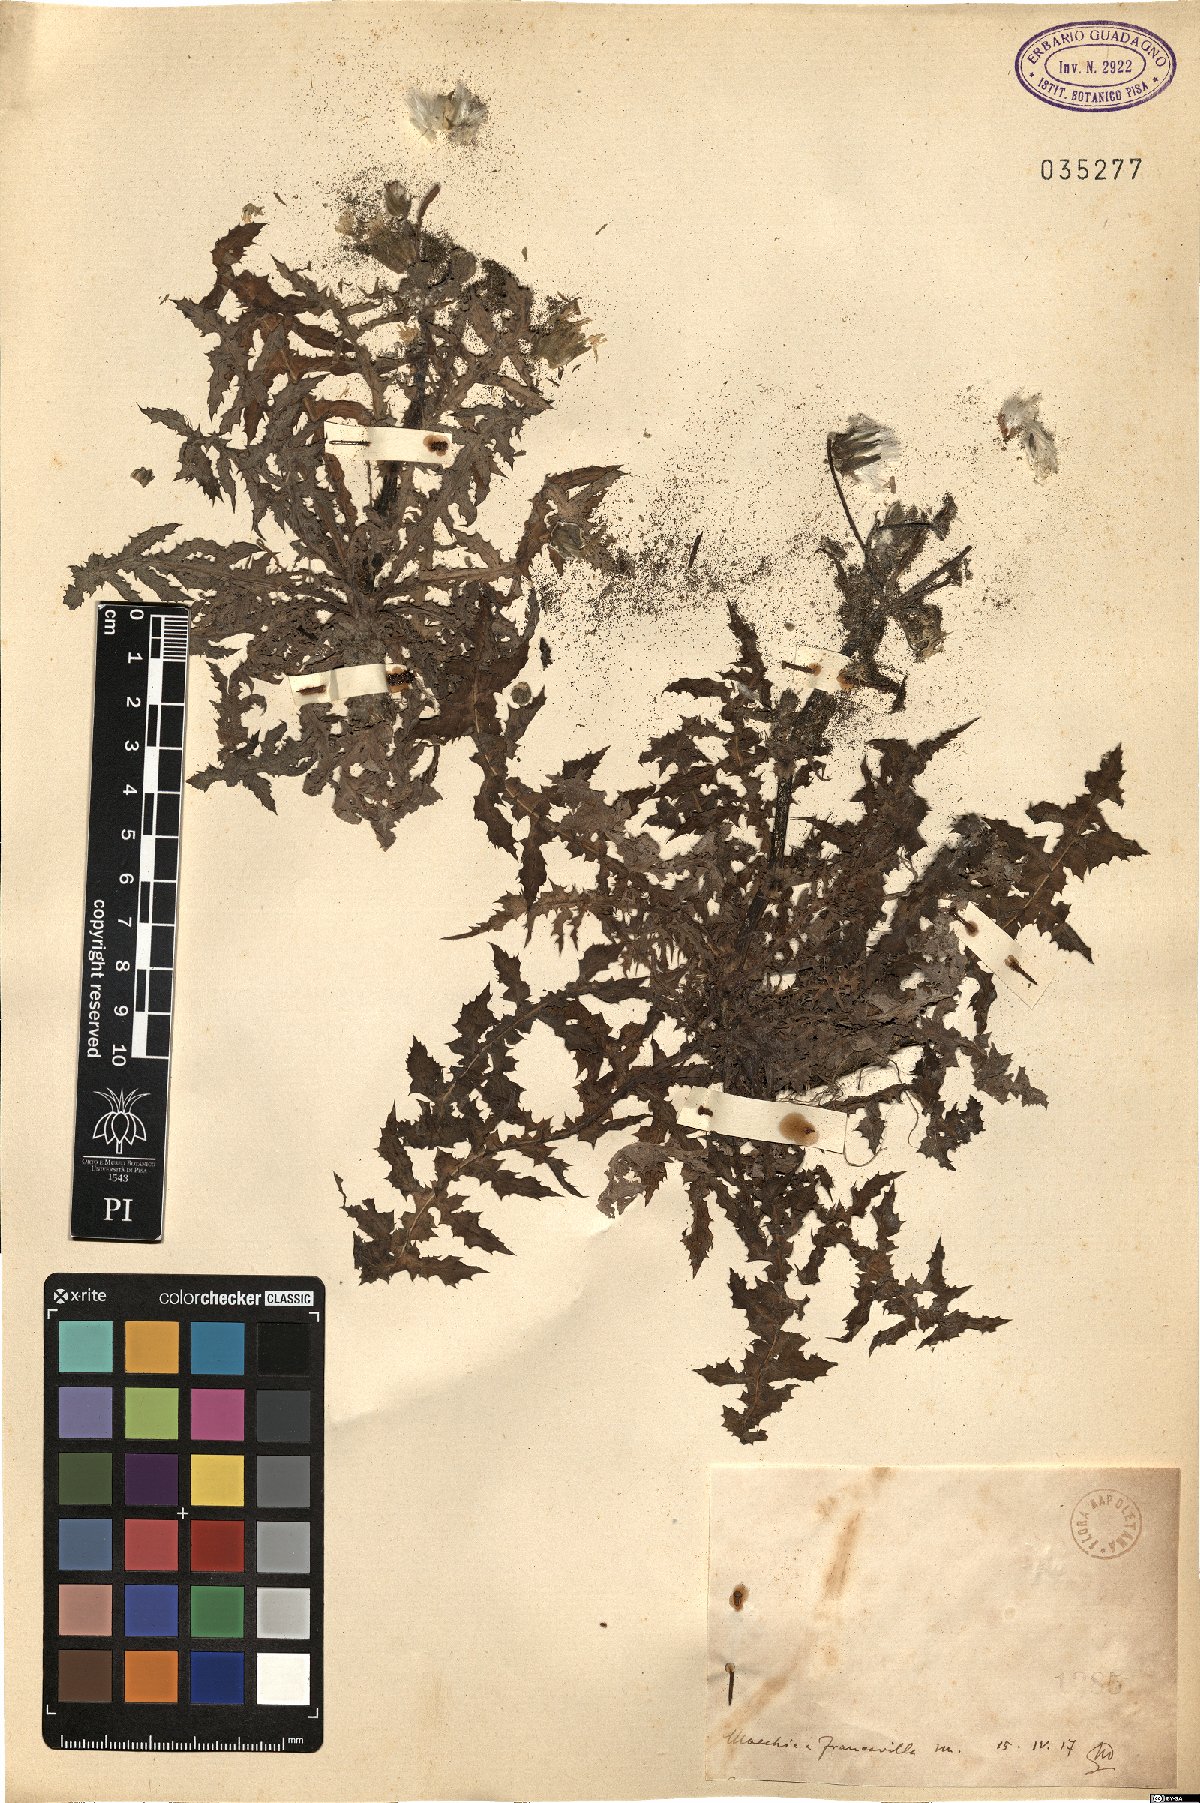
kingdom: Plantae
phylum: Tracheophyta
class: Magnoliopsida
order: Asterales
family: Asteraceae
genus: Sonchus
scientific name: Sonchus
